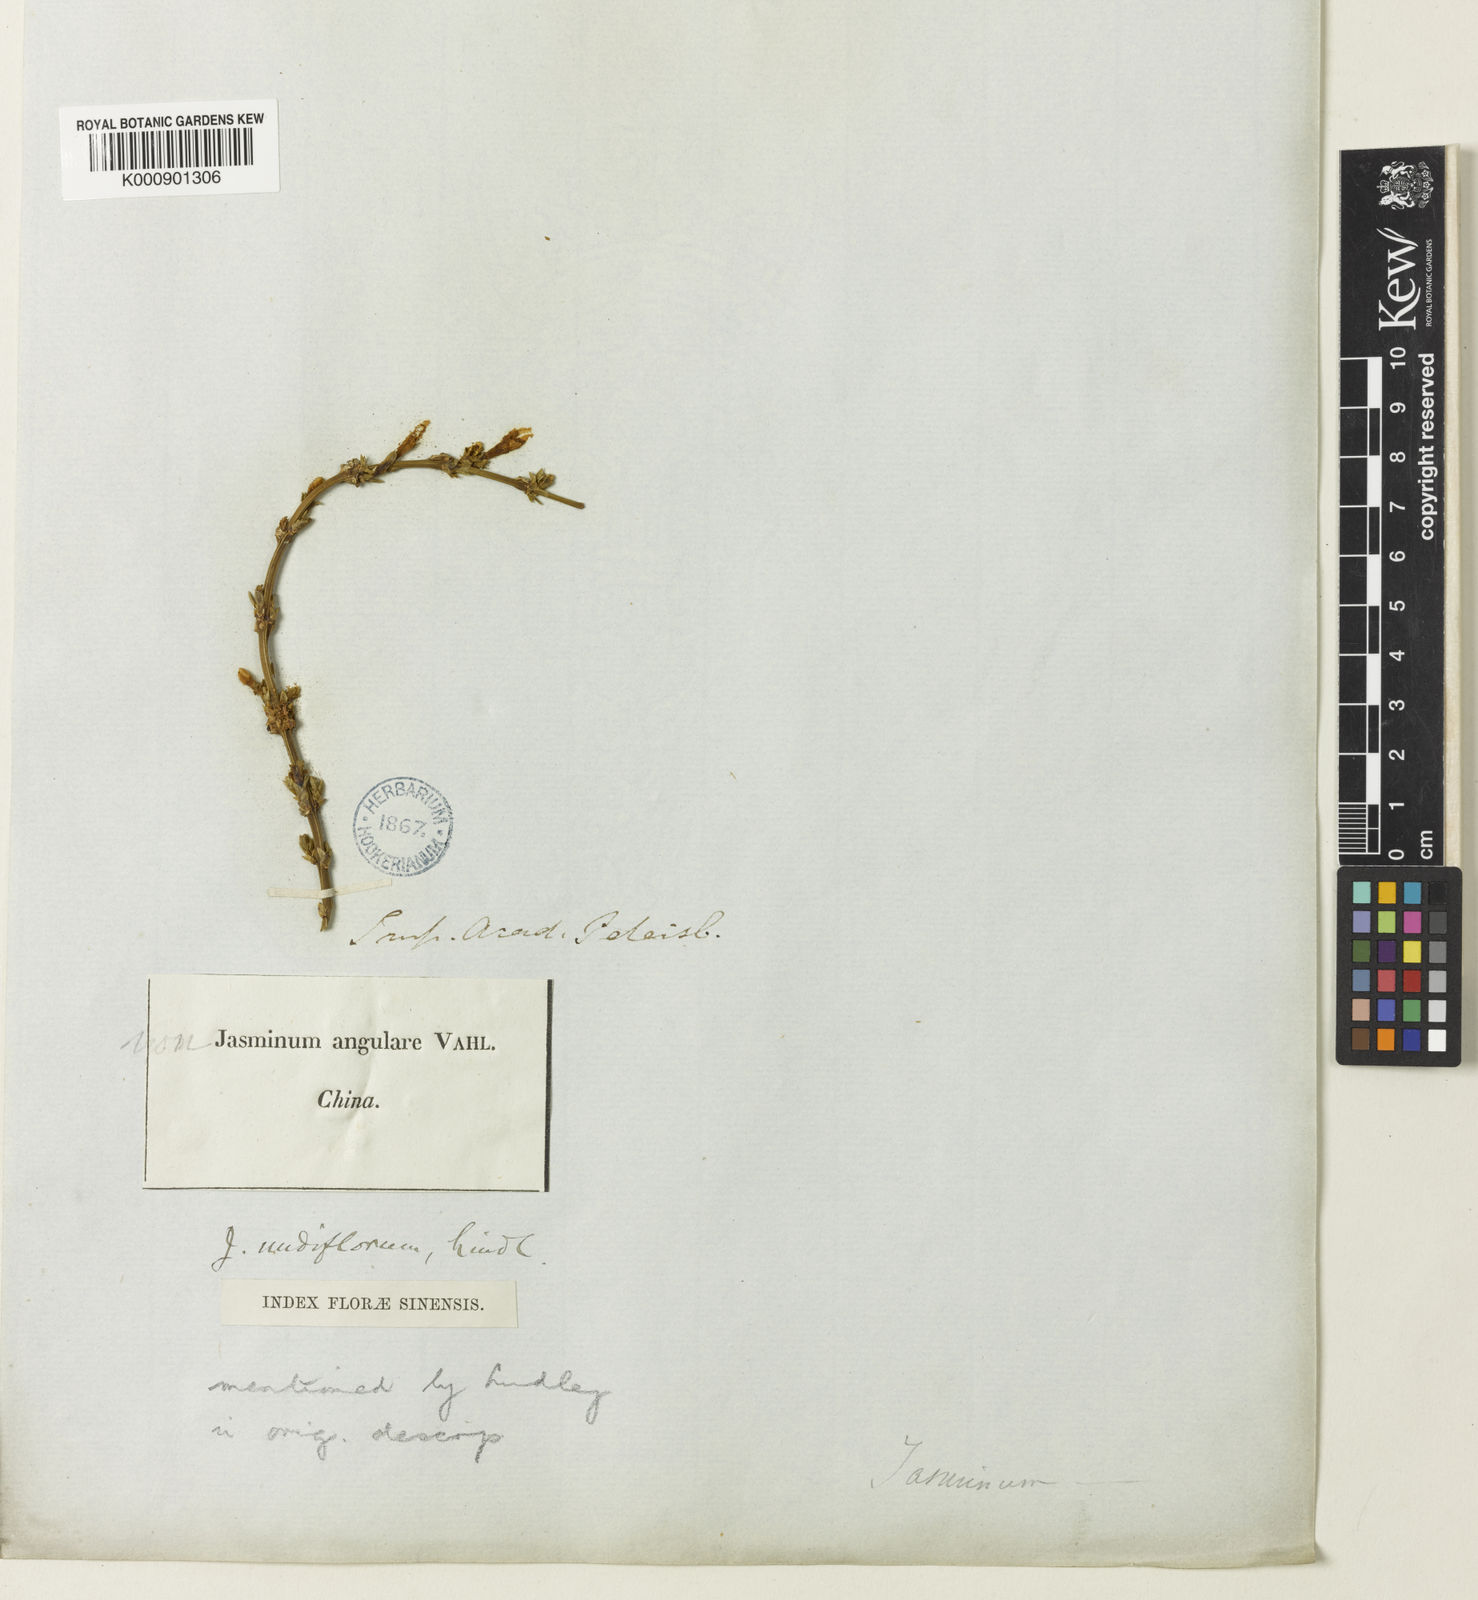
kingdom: Plantae
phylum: Tracheophyta
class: Magnoliopsida
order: Lamiales
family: Oleaceae
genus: Jasminum
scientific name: Jasminum nudiflorum
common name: Winter jasmine
